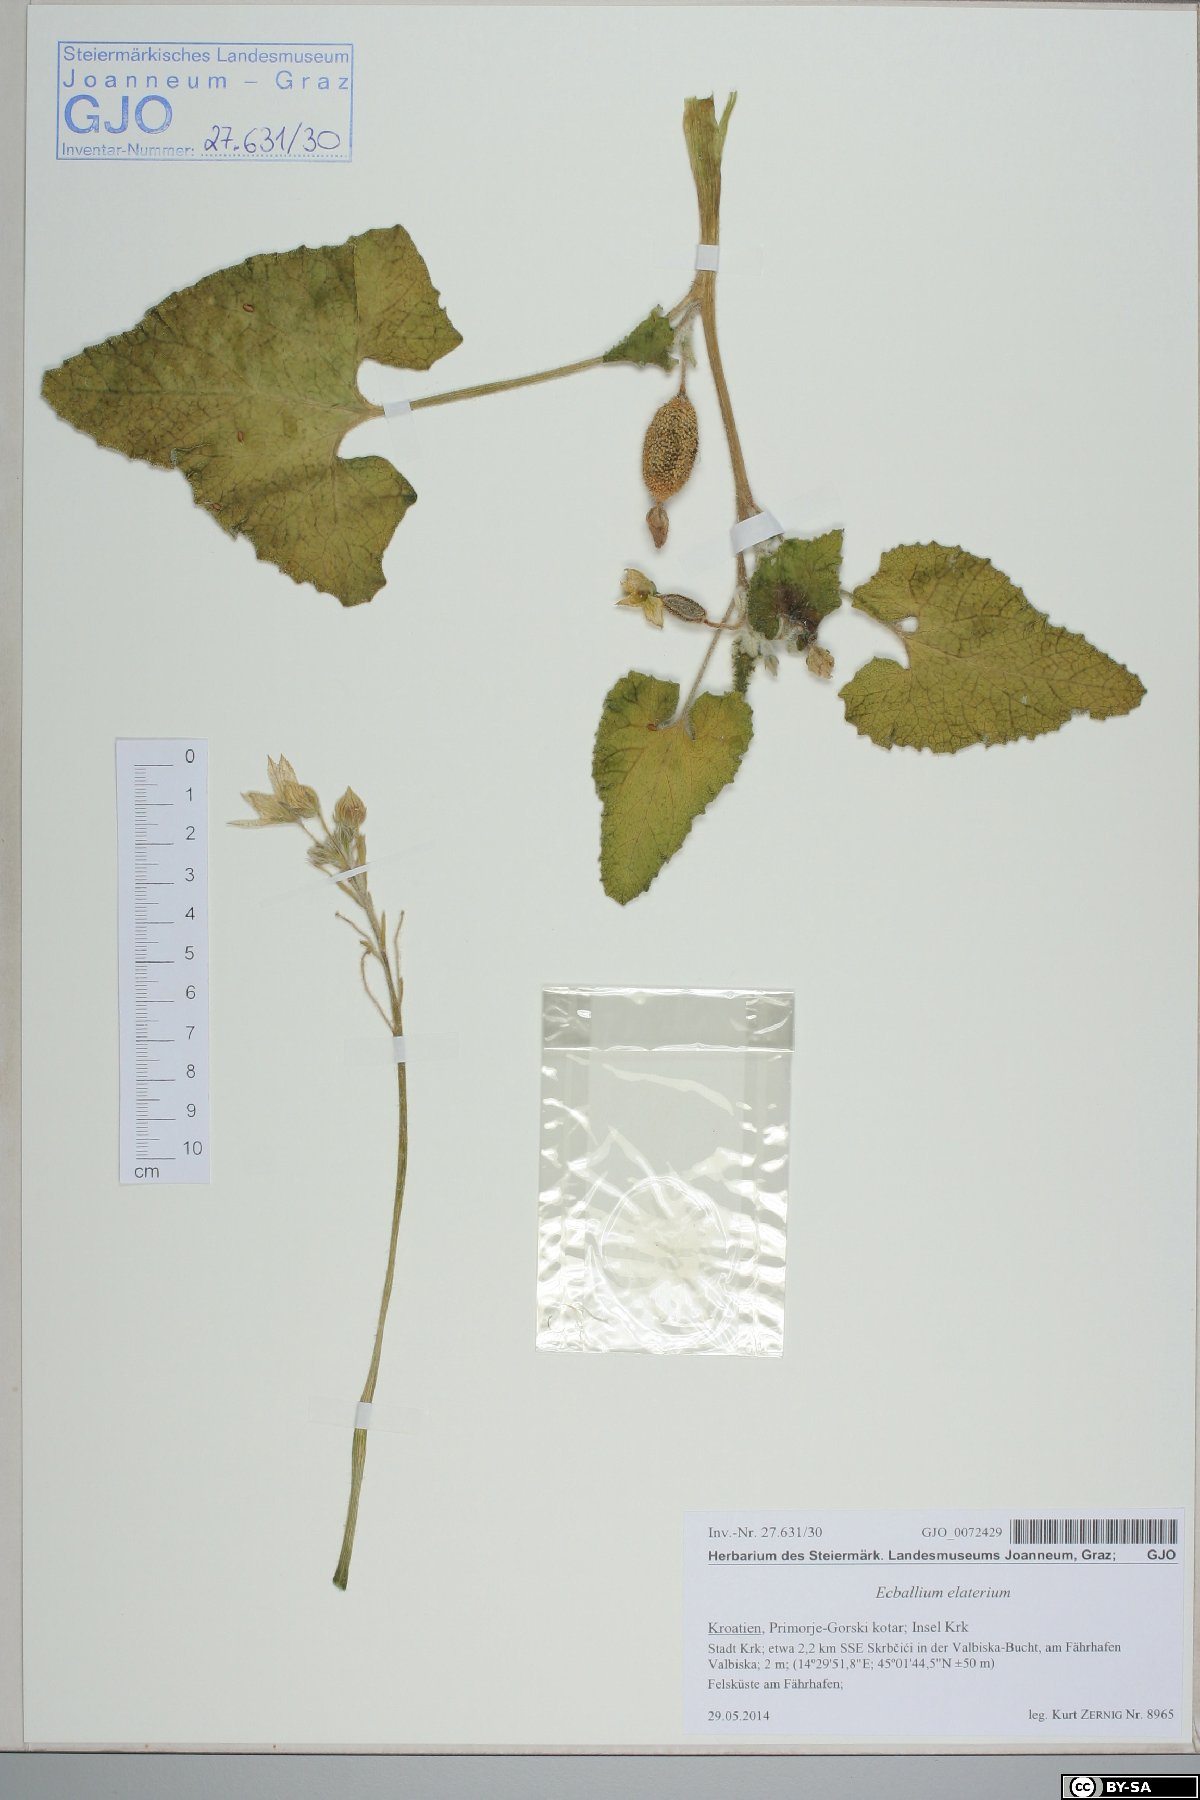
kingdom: Plantae
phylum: Tracheophyta
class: Magnoliopsida
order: Cucurbitales
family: Cucurbitaceae
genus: Ecballium
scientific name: Ecballium elaterium
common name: Squirting cucumber
